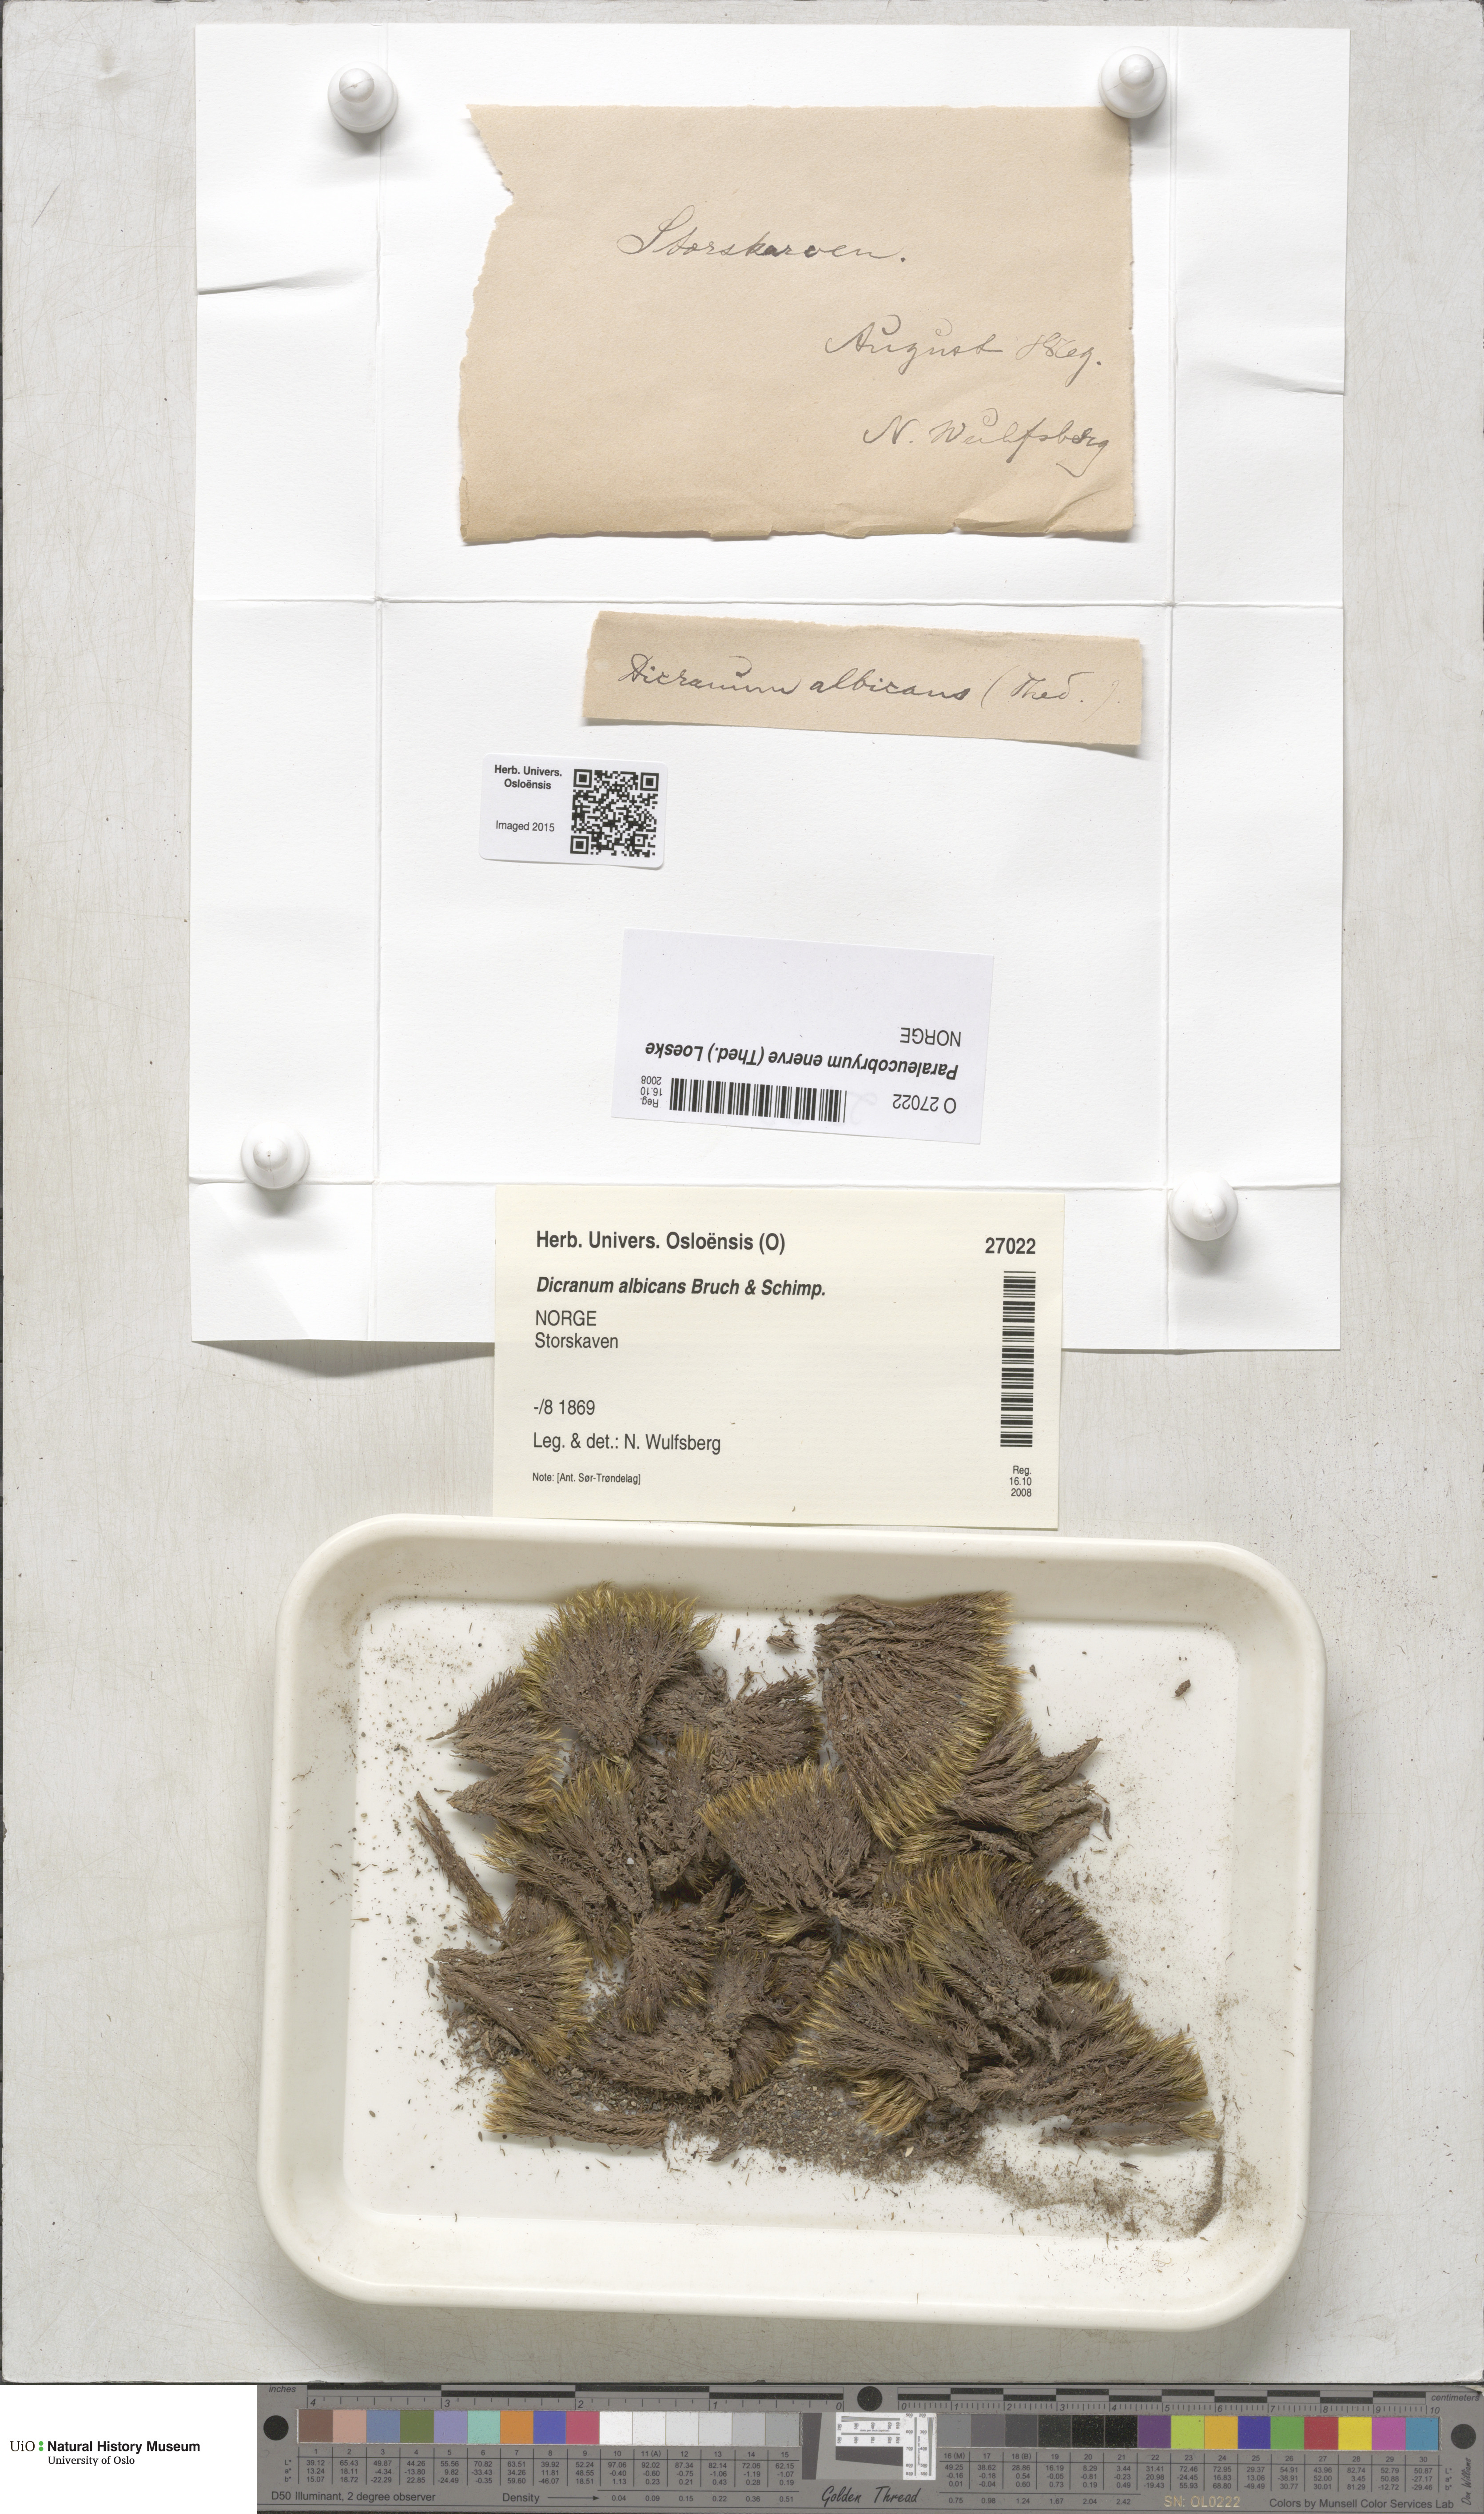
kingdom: Plantae
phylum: Bryophyta
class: Bryopsida
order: Dicranales
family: Dicranaceae
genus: Paraleucobryum
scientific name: Paraleucobryum enerve
